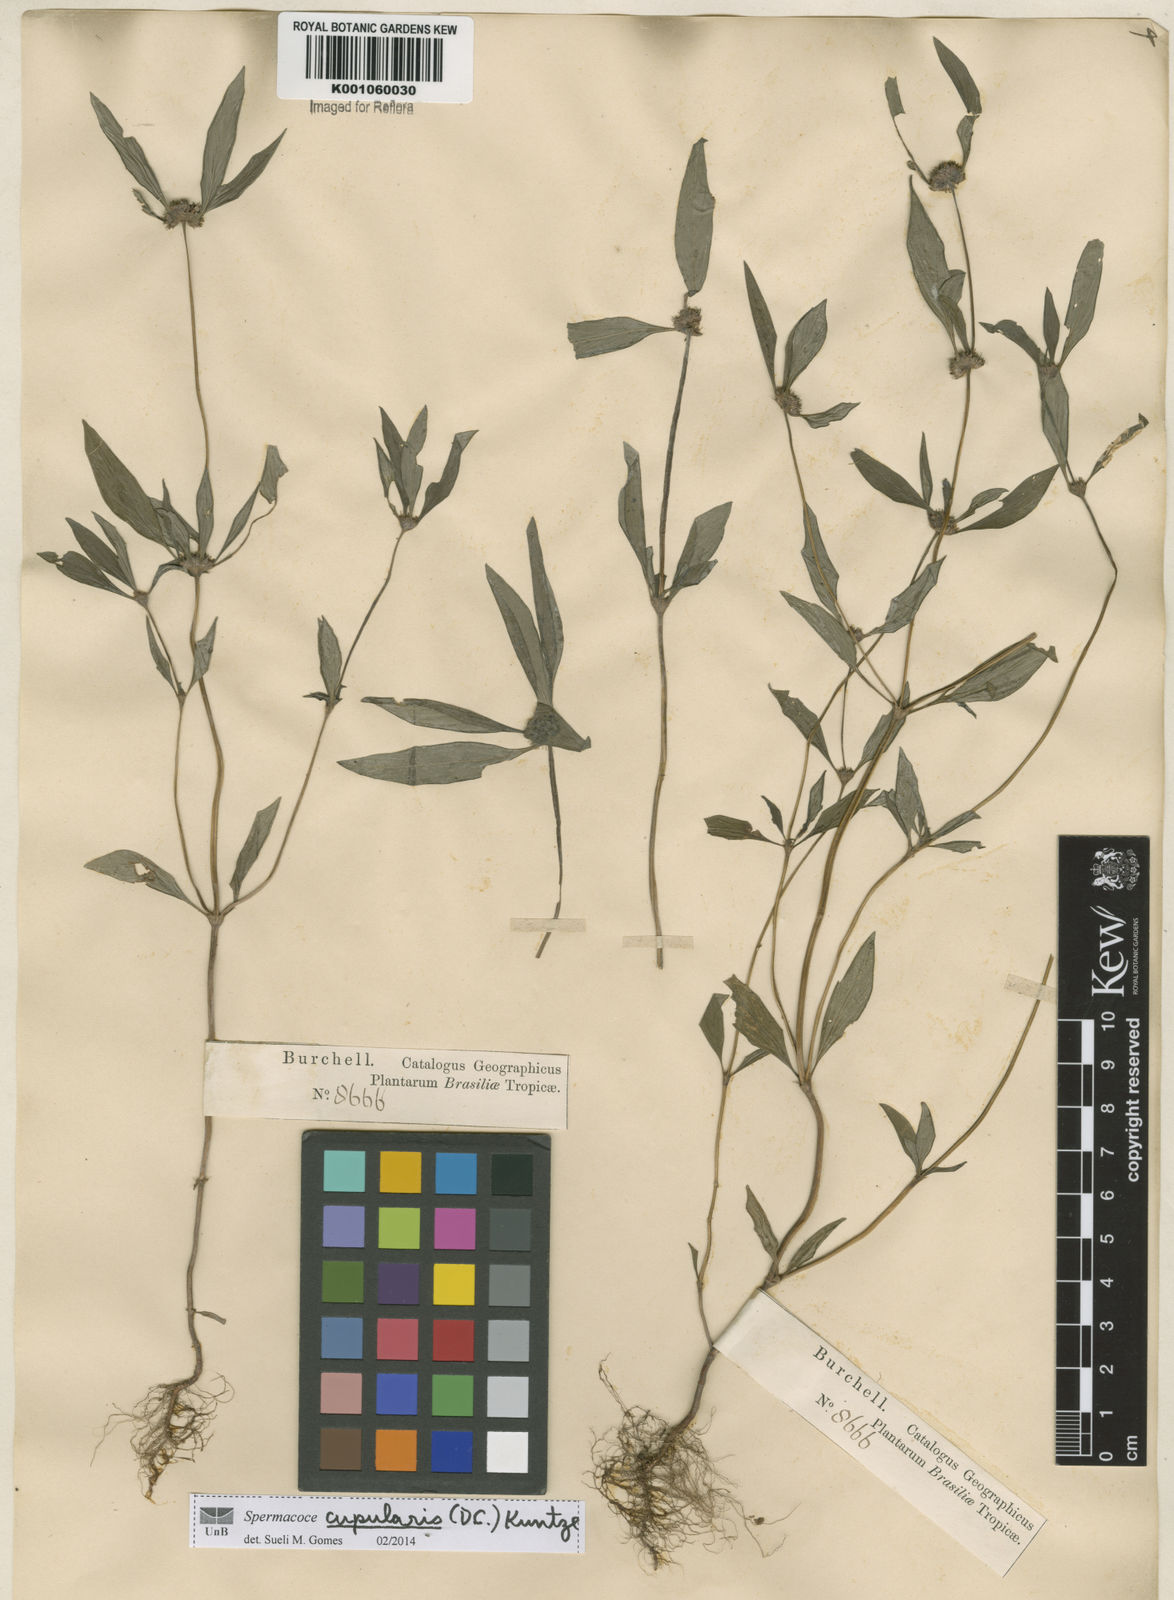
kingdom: Plantae
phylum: Tracheophyta
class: Magnoliopsida
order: Gentianales
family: Rubiaceae
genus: Spermacoce
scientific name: Spermacoce cupularis
